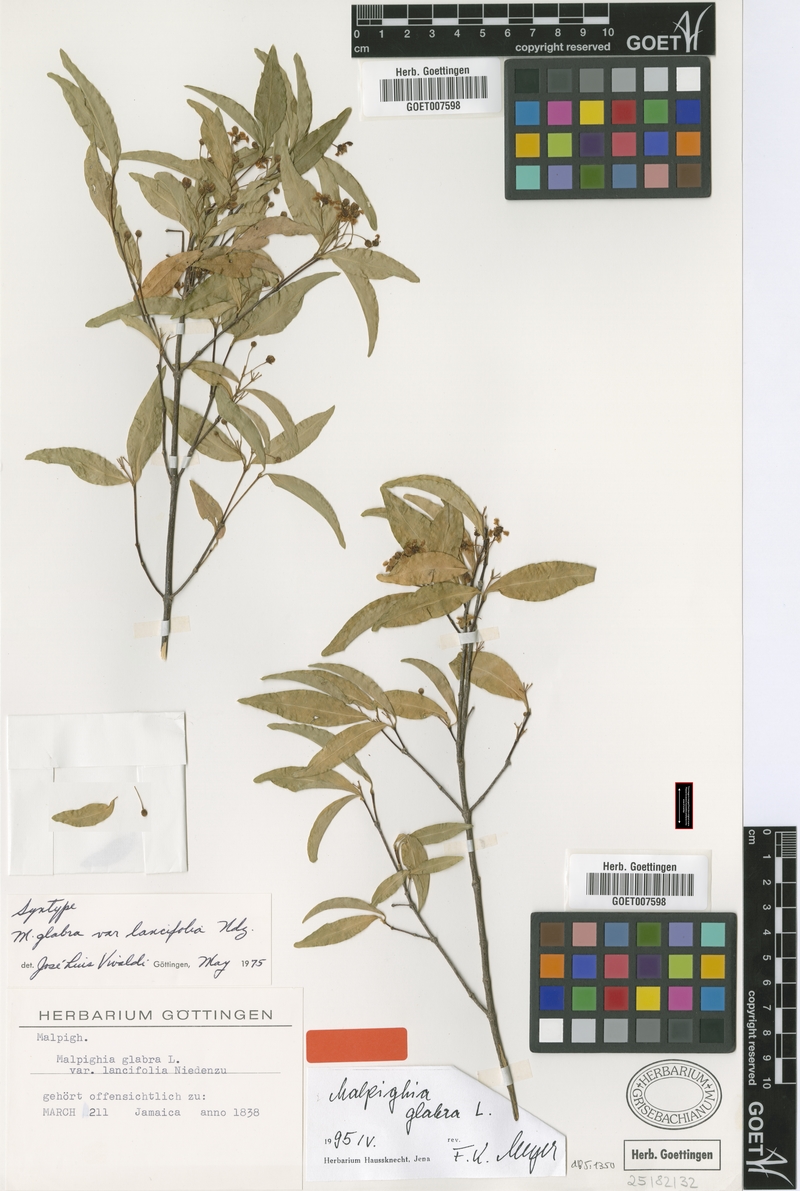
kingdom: Plantae
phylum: Tracheophyta
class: Magnoliopsida
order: Malpighiales
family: Malpighiaceae
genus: Malpighia
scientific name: Malpighia glabra
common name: Barbados cherry
